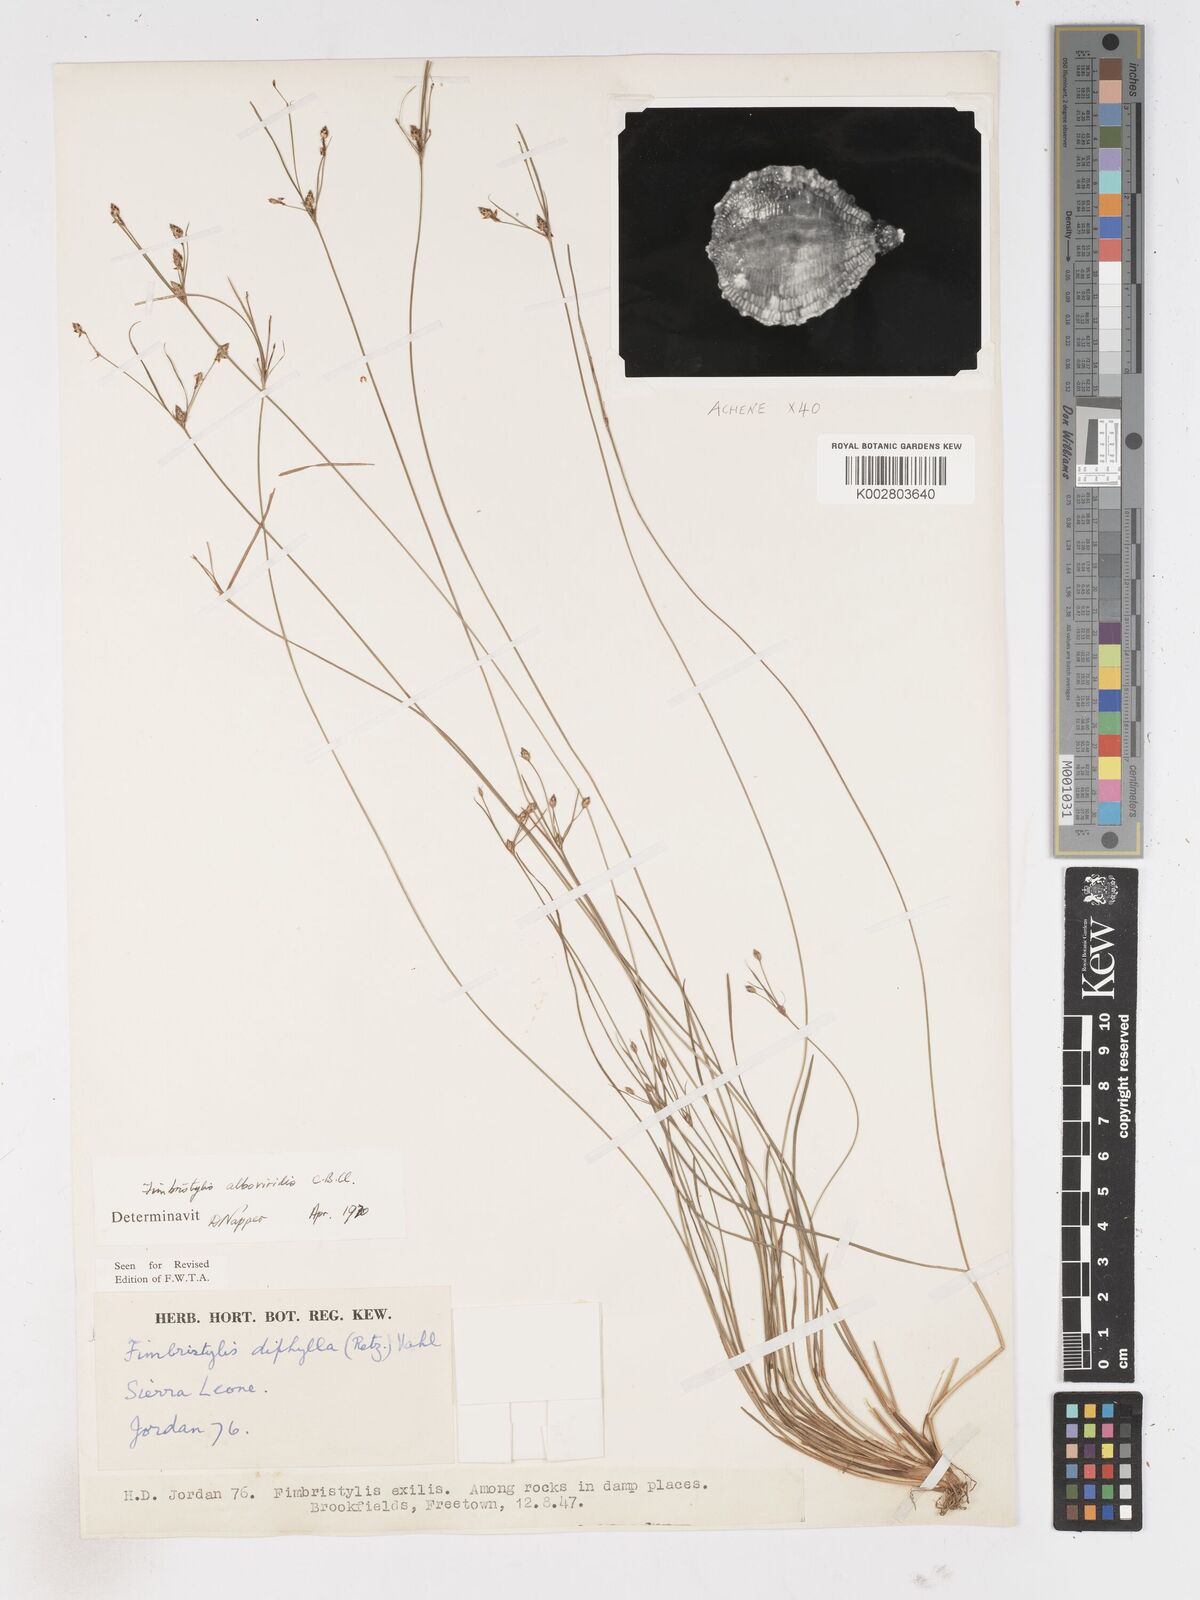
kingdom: Plantae
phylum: Tracheophyta
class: Liliopsida
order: Poales
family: Cyperaceae
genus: Fimbristylis
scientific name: Fimbristylis alboviridis
